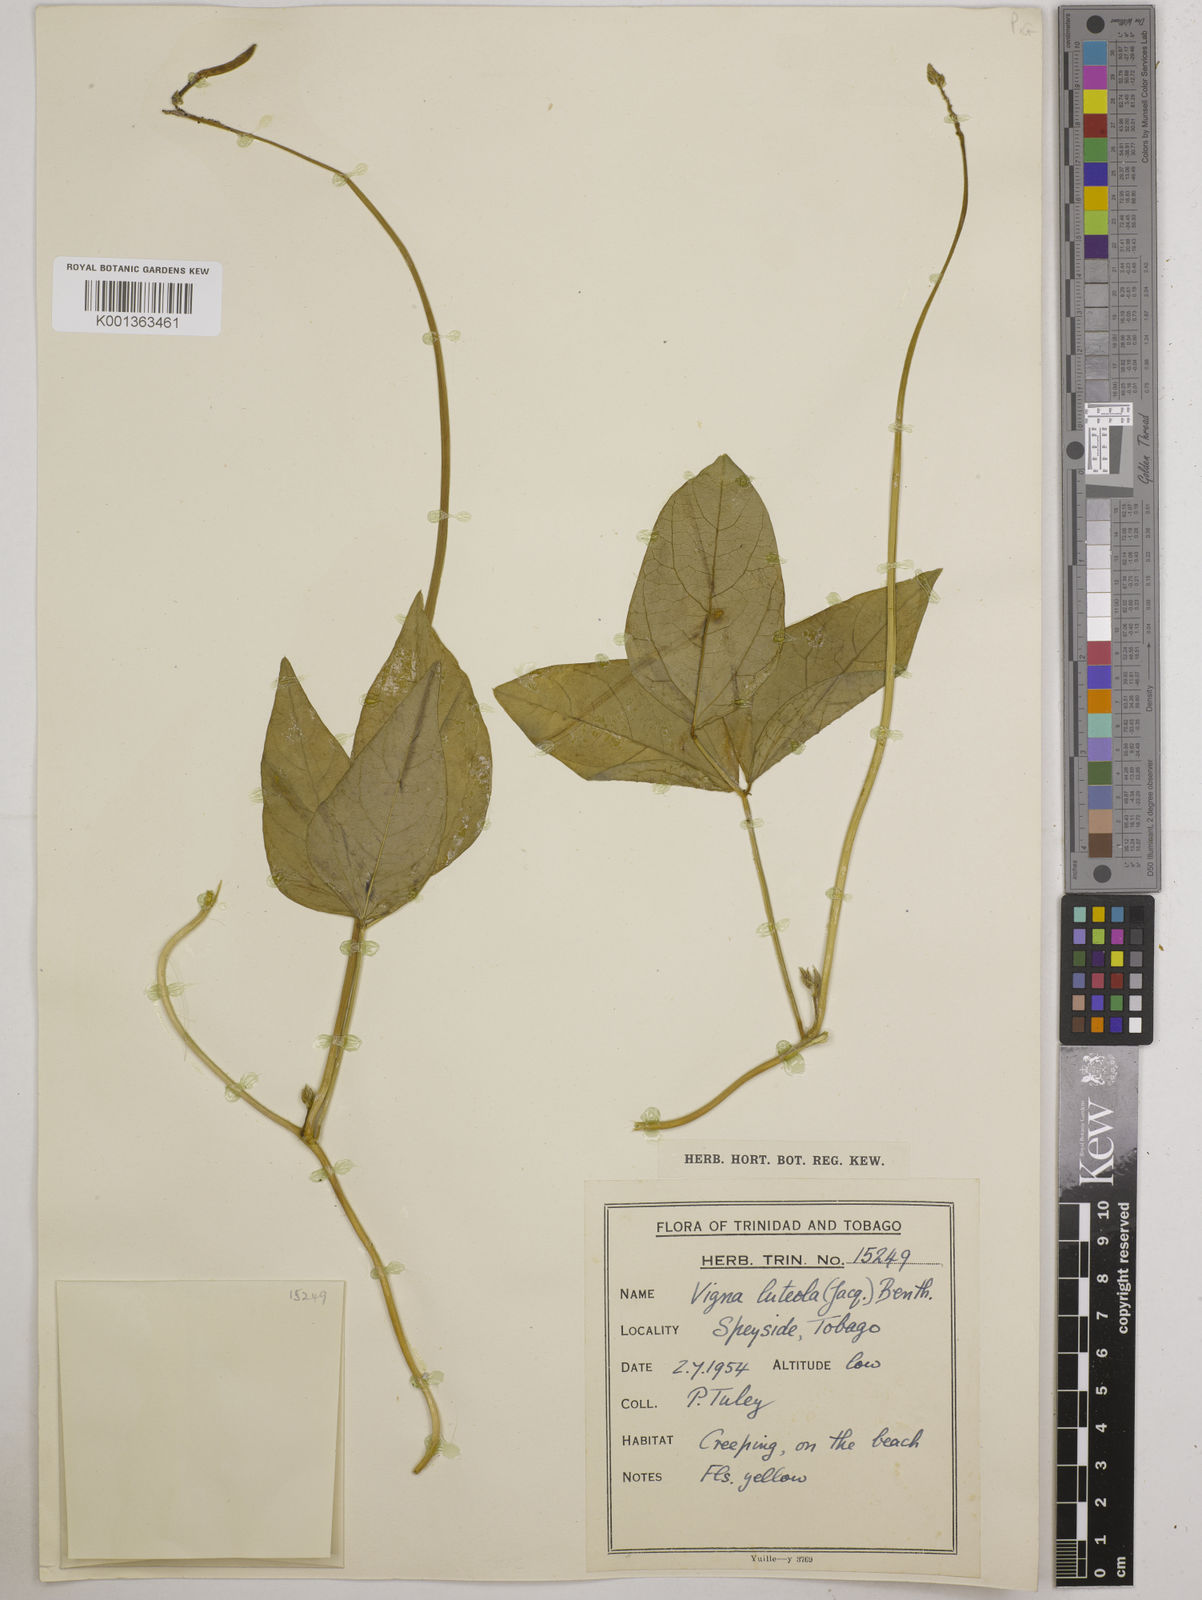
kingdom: Plantae
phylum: Tracheophyta
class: Magnoliopsida
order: Fabales
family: Fabaceae
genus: Vigna
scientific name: Vigna luteola
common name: Hairypod cowpea
